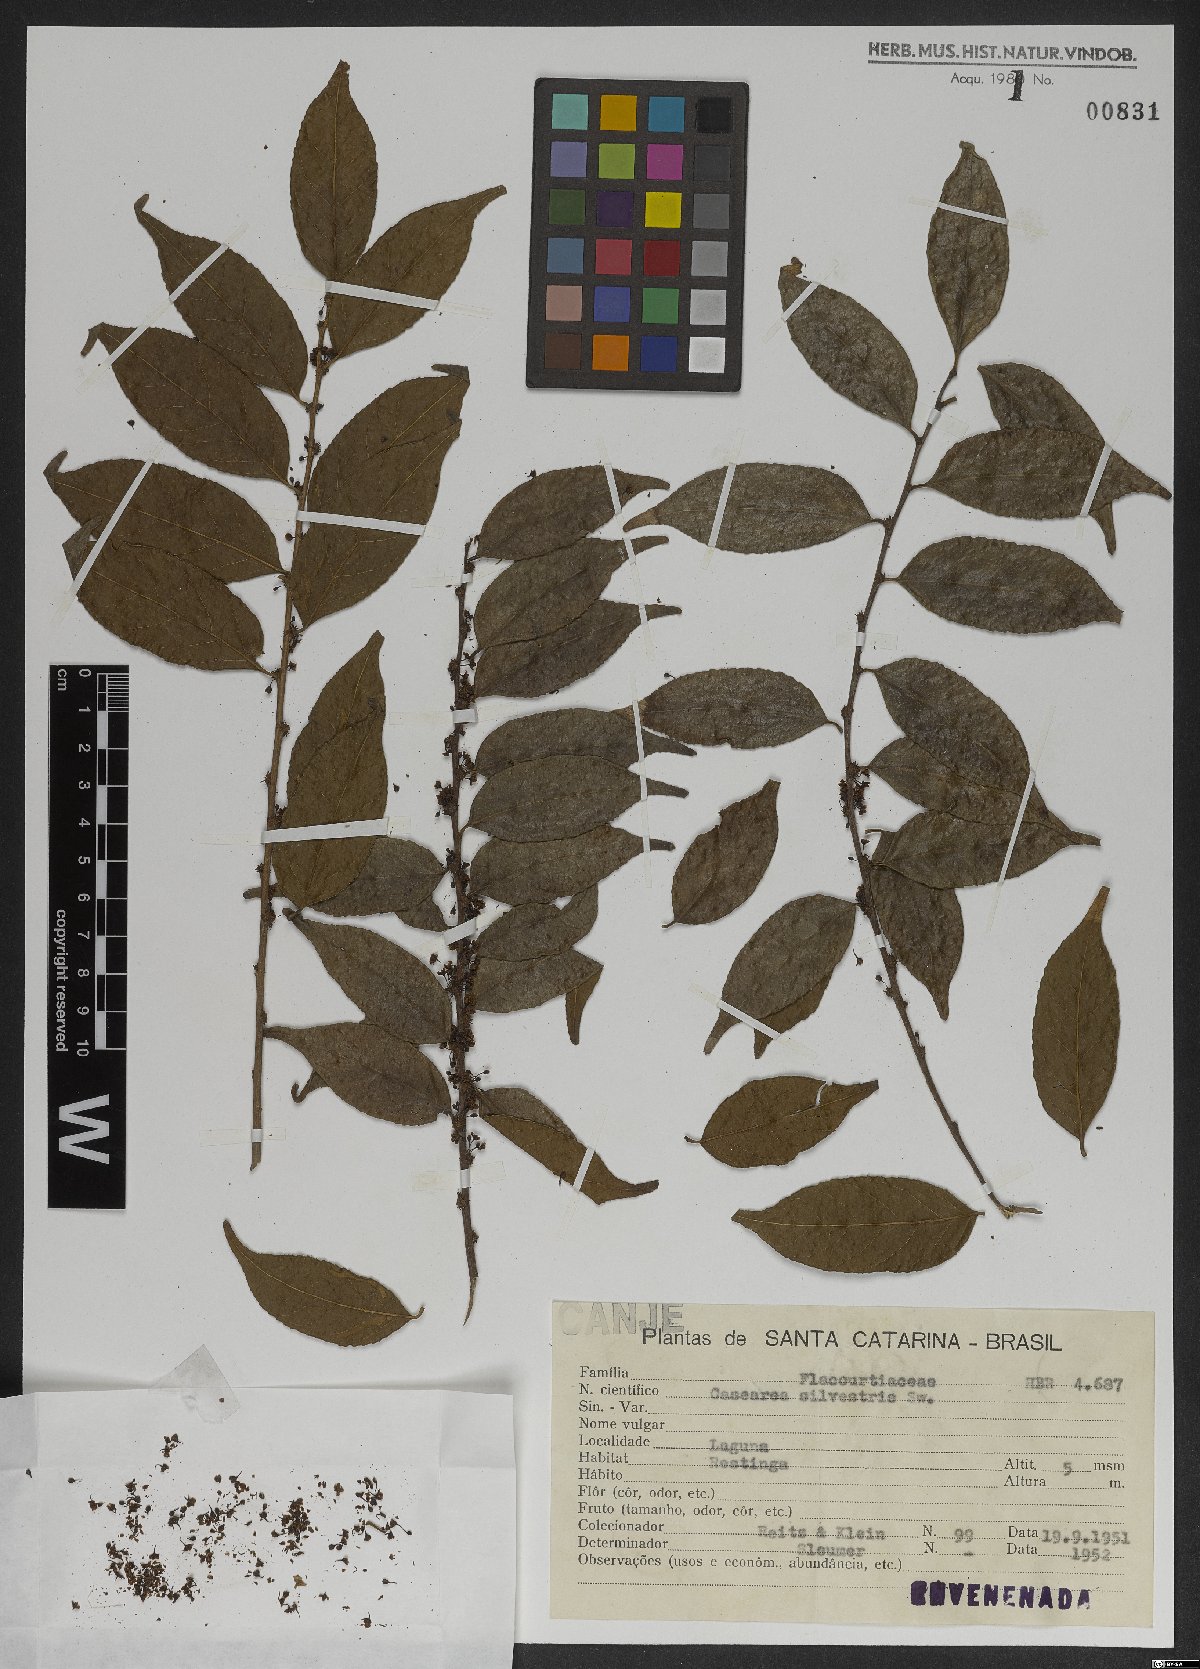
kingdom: Plantae
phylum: Tracheophyta
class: Magnoliopsida
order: Malpighiales
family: Salicaceae
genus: Casearia
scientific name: Casearia sylvestris
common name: Wild sage
